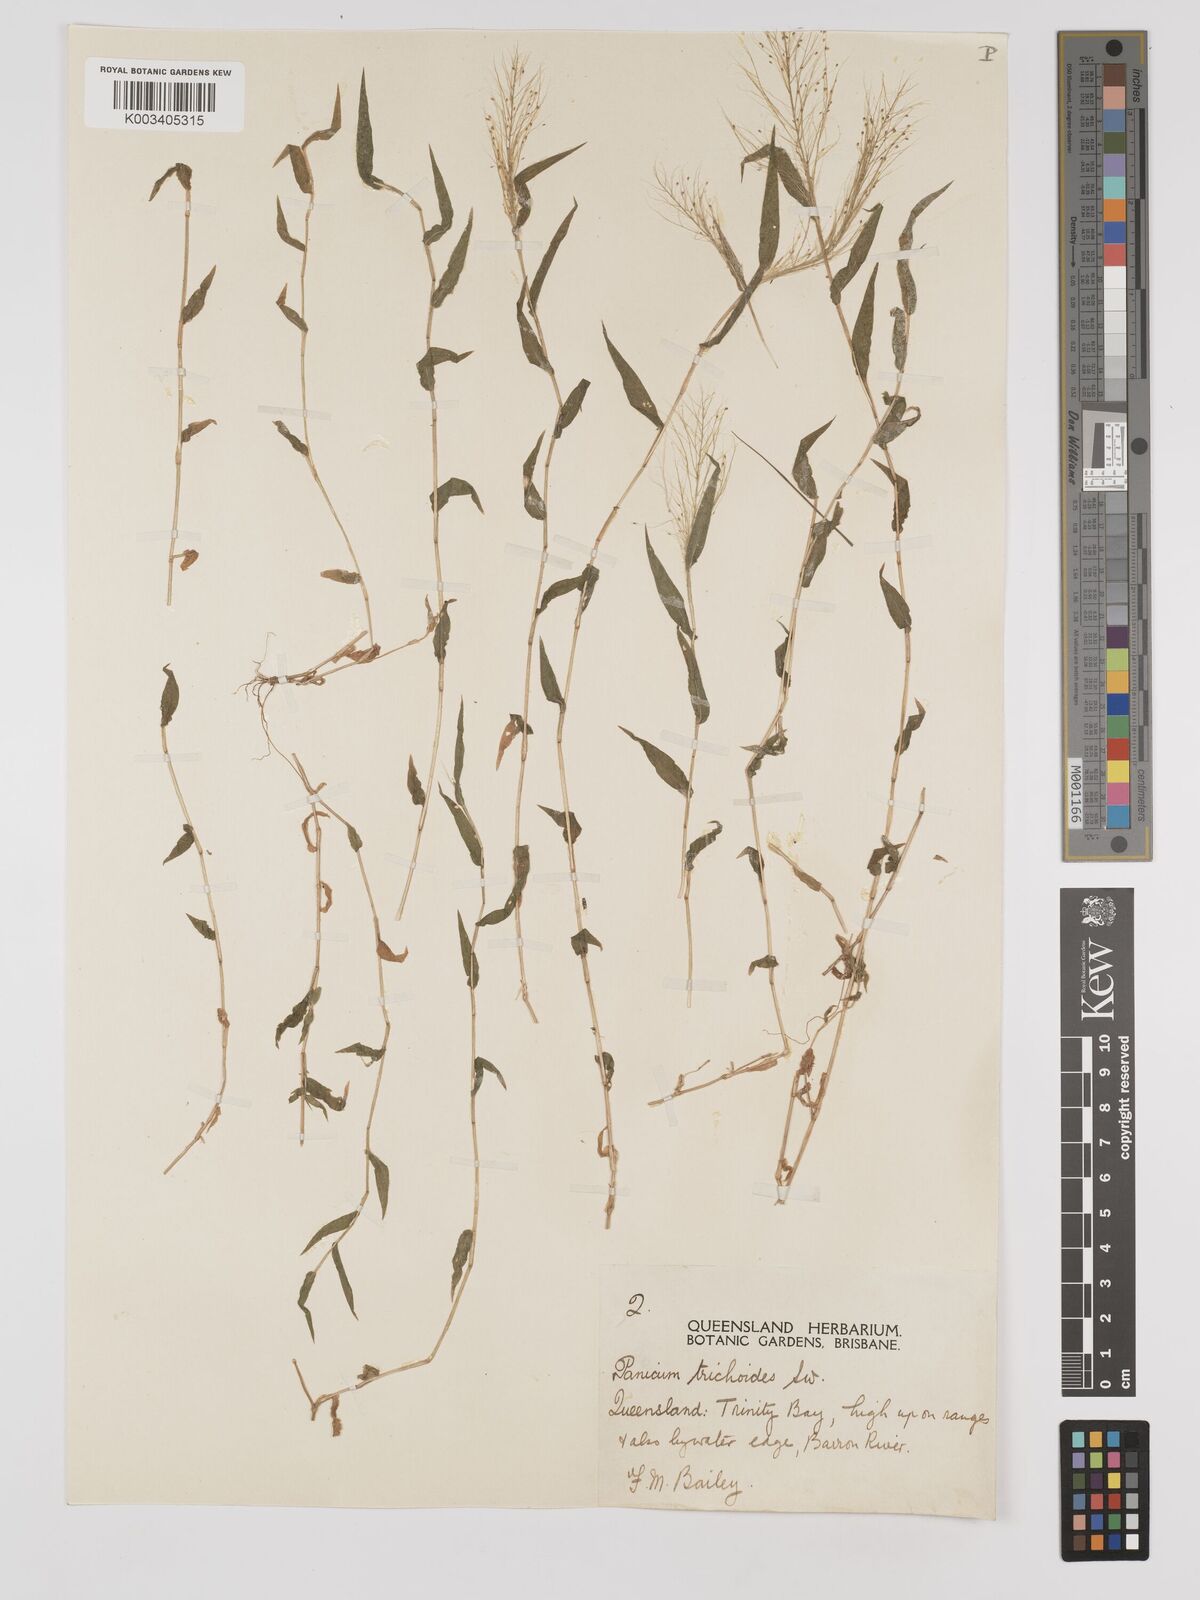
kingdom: Plantae
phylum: Tracheophyta
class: Liliopsida
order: Poales
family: Poaceae
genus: Panicum
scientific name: Panicum trichoides
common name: Tickle grass
